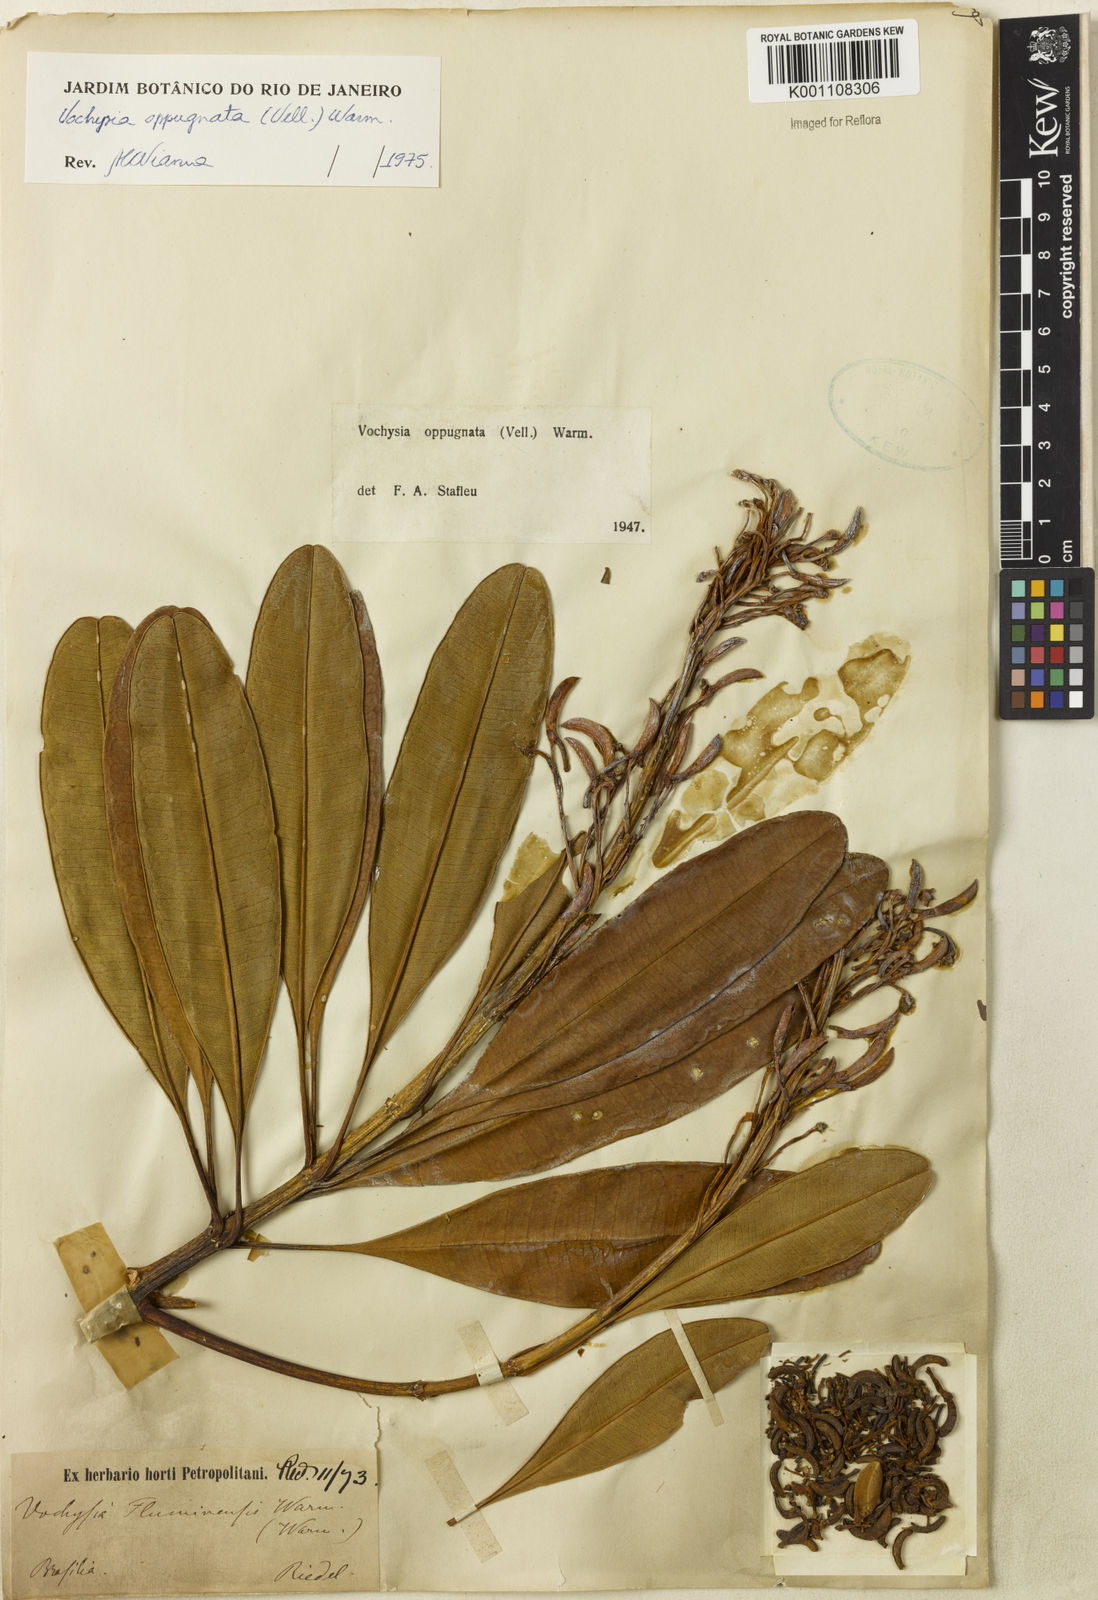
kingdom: Plantae
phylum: Tracheophyta
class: Magnoliopsida
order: Myrtales
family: Vochysiaceae
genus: Vochysia
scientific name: Vochysia oppugnata
